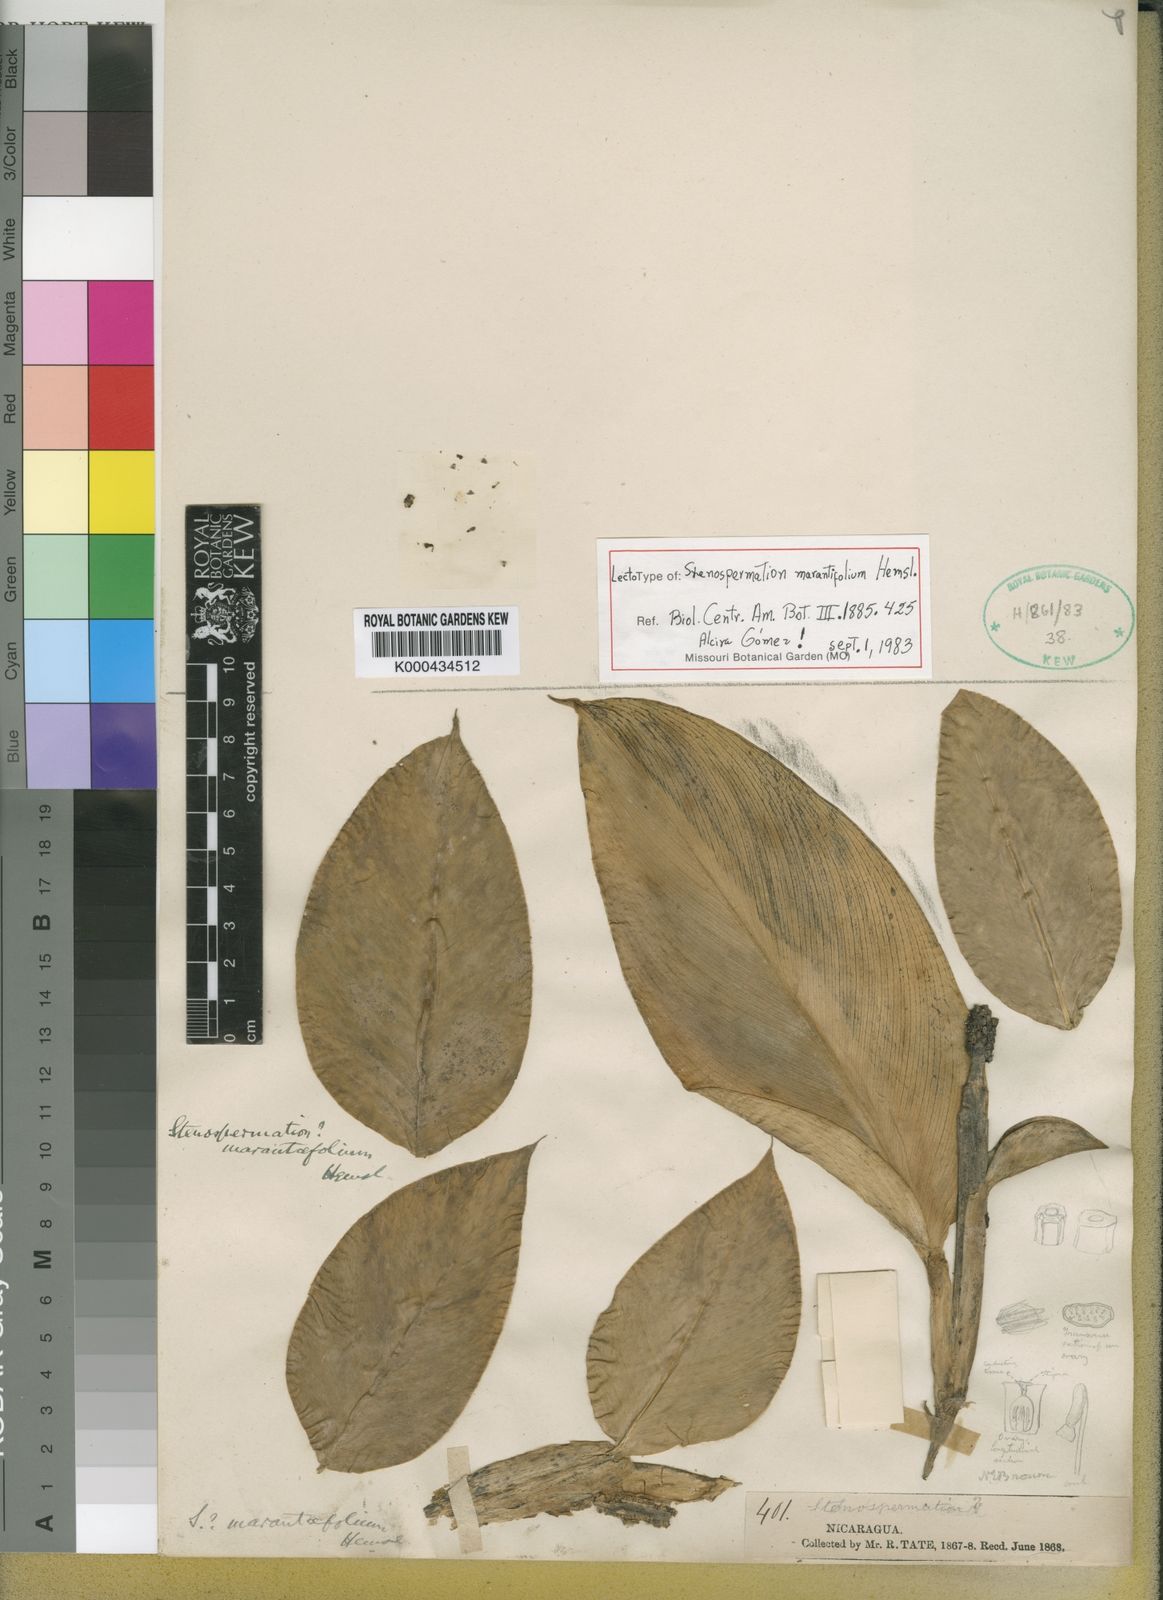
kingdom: Plantae
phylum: Tracheophyta
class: Liliopsida
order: Alismatales
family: Araceae
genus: Stenospermation
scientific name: Stenospermation marantifolium
